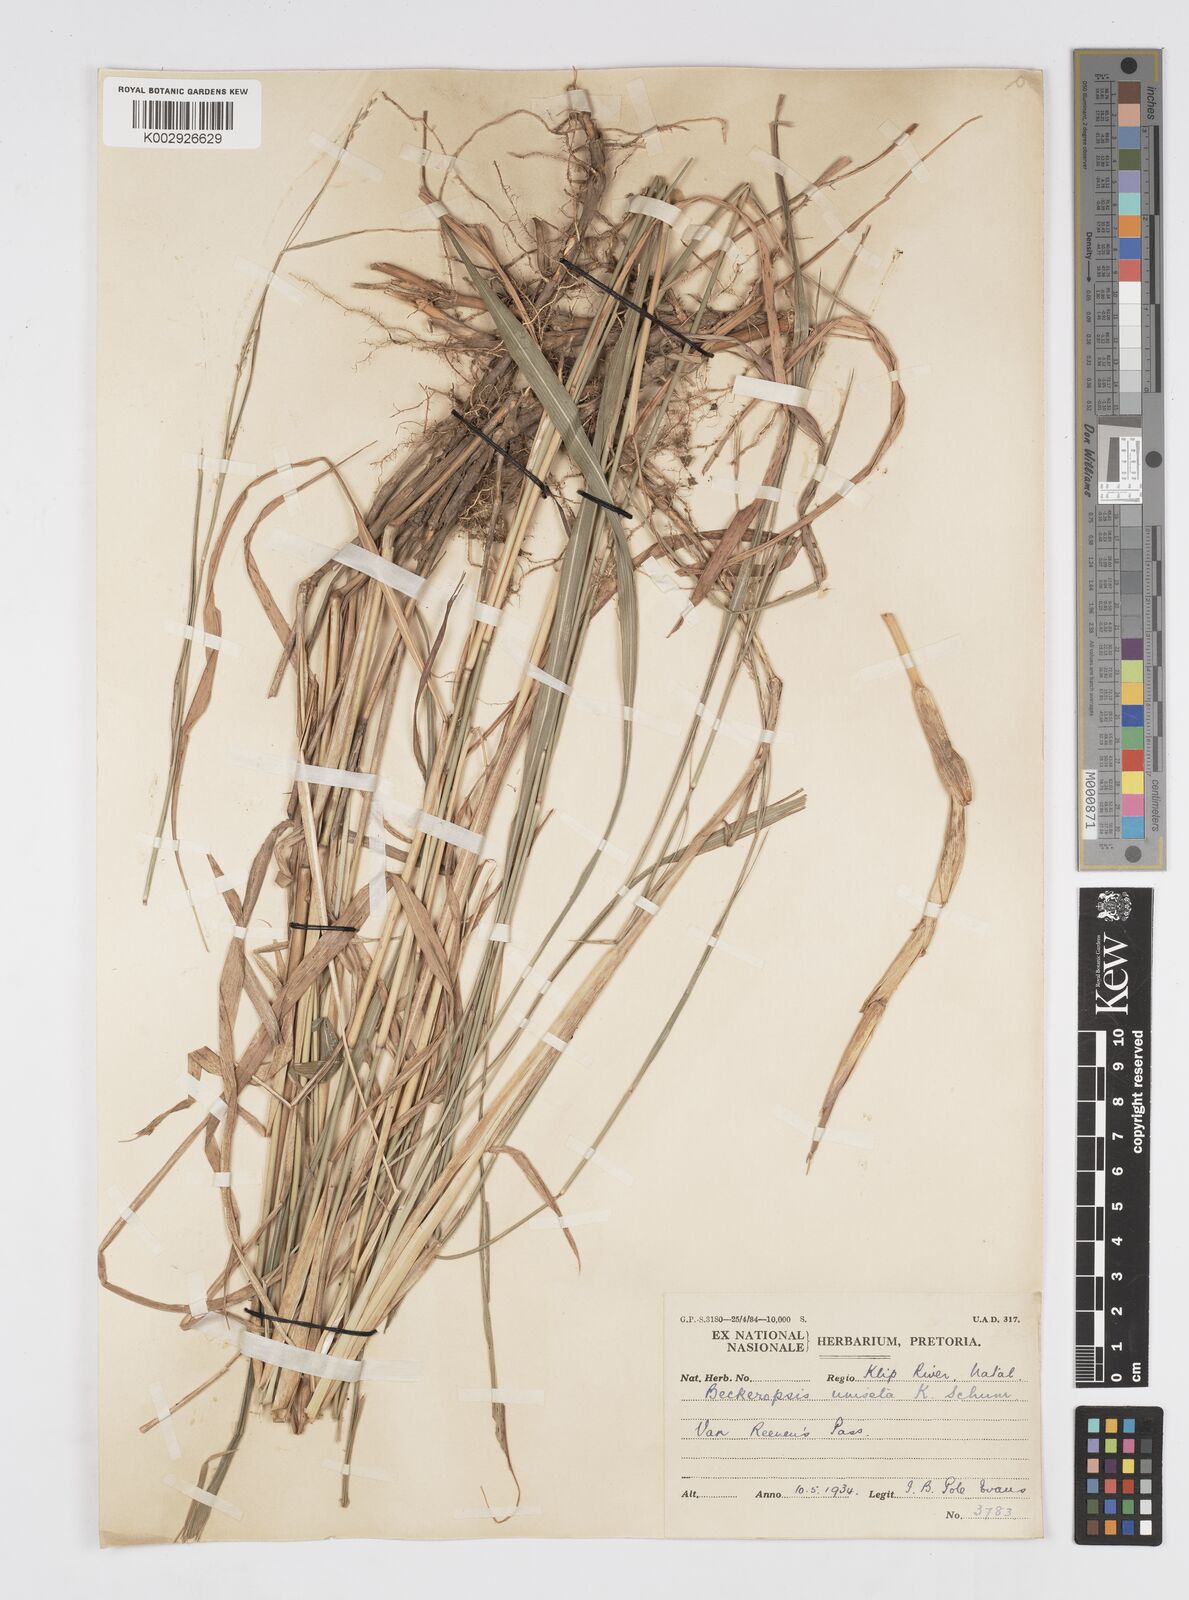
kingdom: Plantae
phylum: Tracheophyta
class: Liliopsida
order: Poales
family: Poaceae
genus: Cenchrus
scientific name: Cenchrus unisetus
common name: Natal grass
